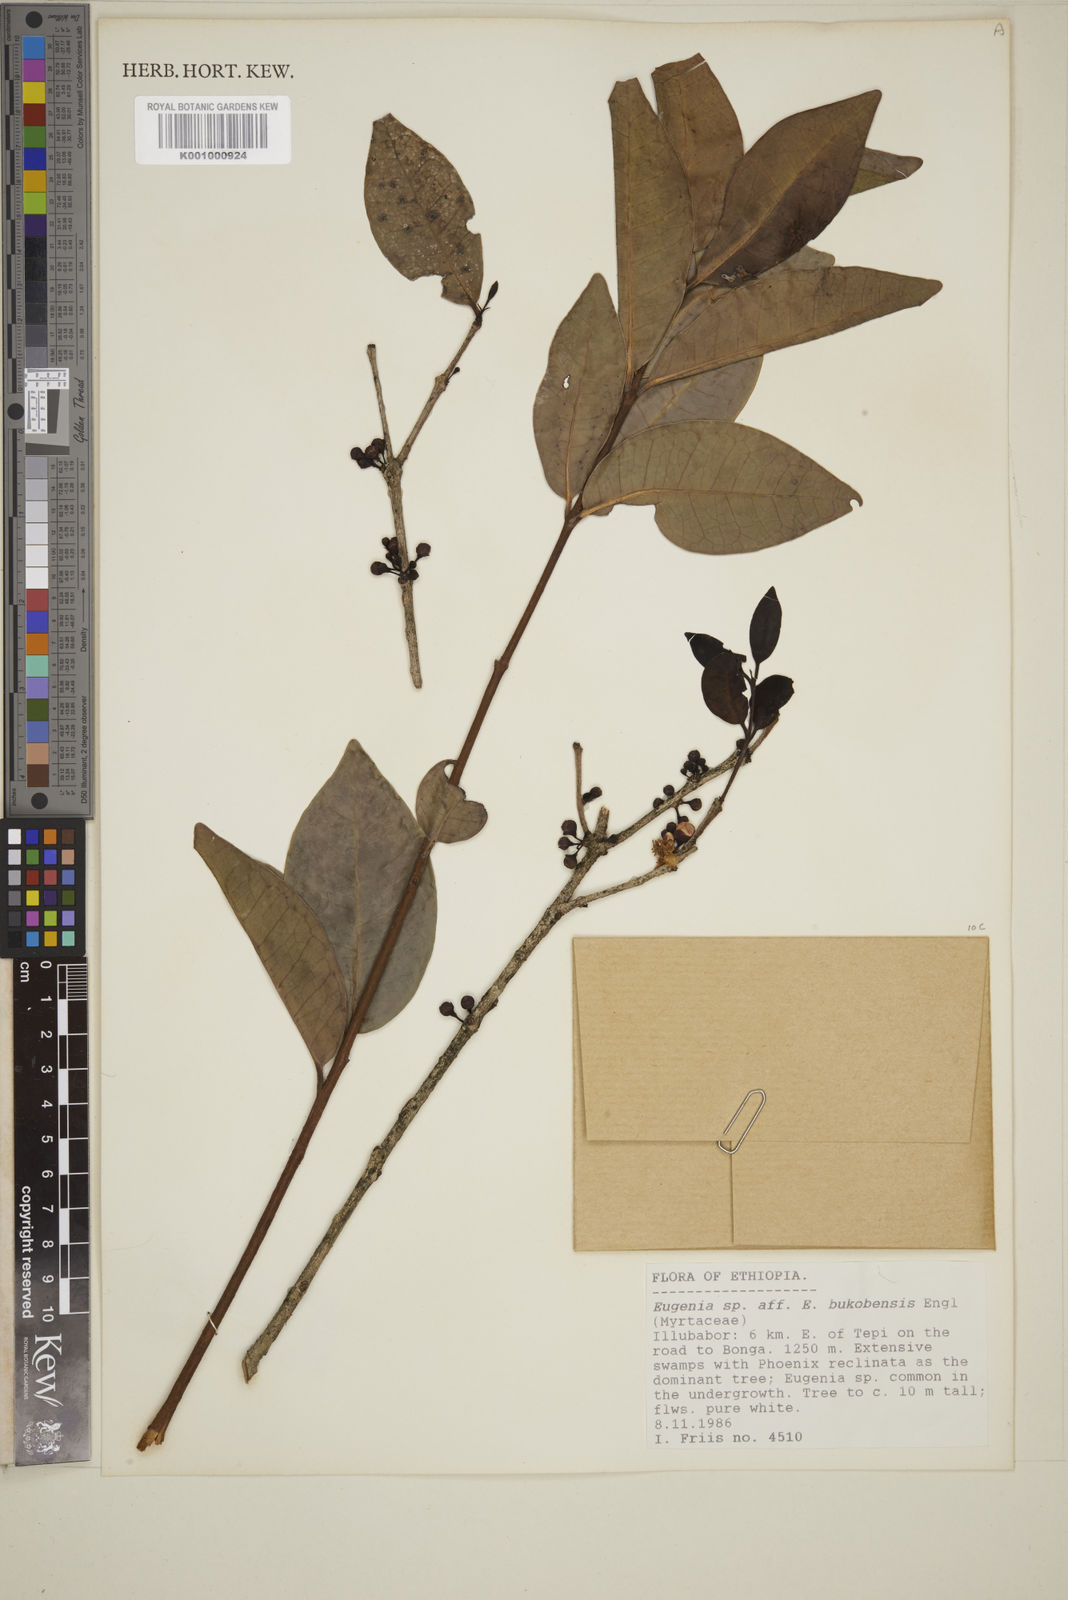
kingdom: Plantae
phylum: Tracheophyta
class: Magnoliopsida
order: Myrtales
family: Myrtaceae
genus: Eugenia
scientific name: Eugenia bukobensis
